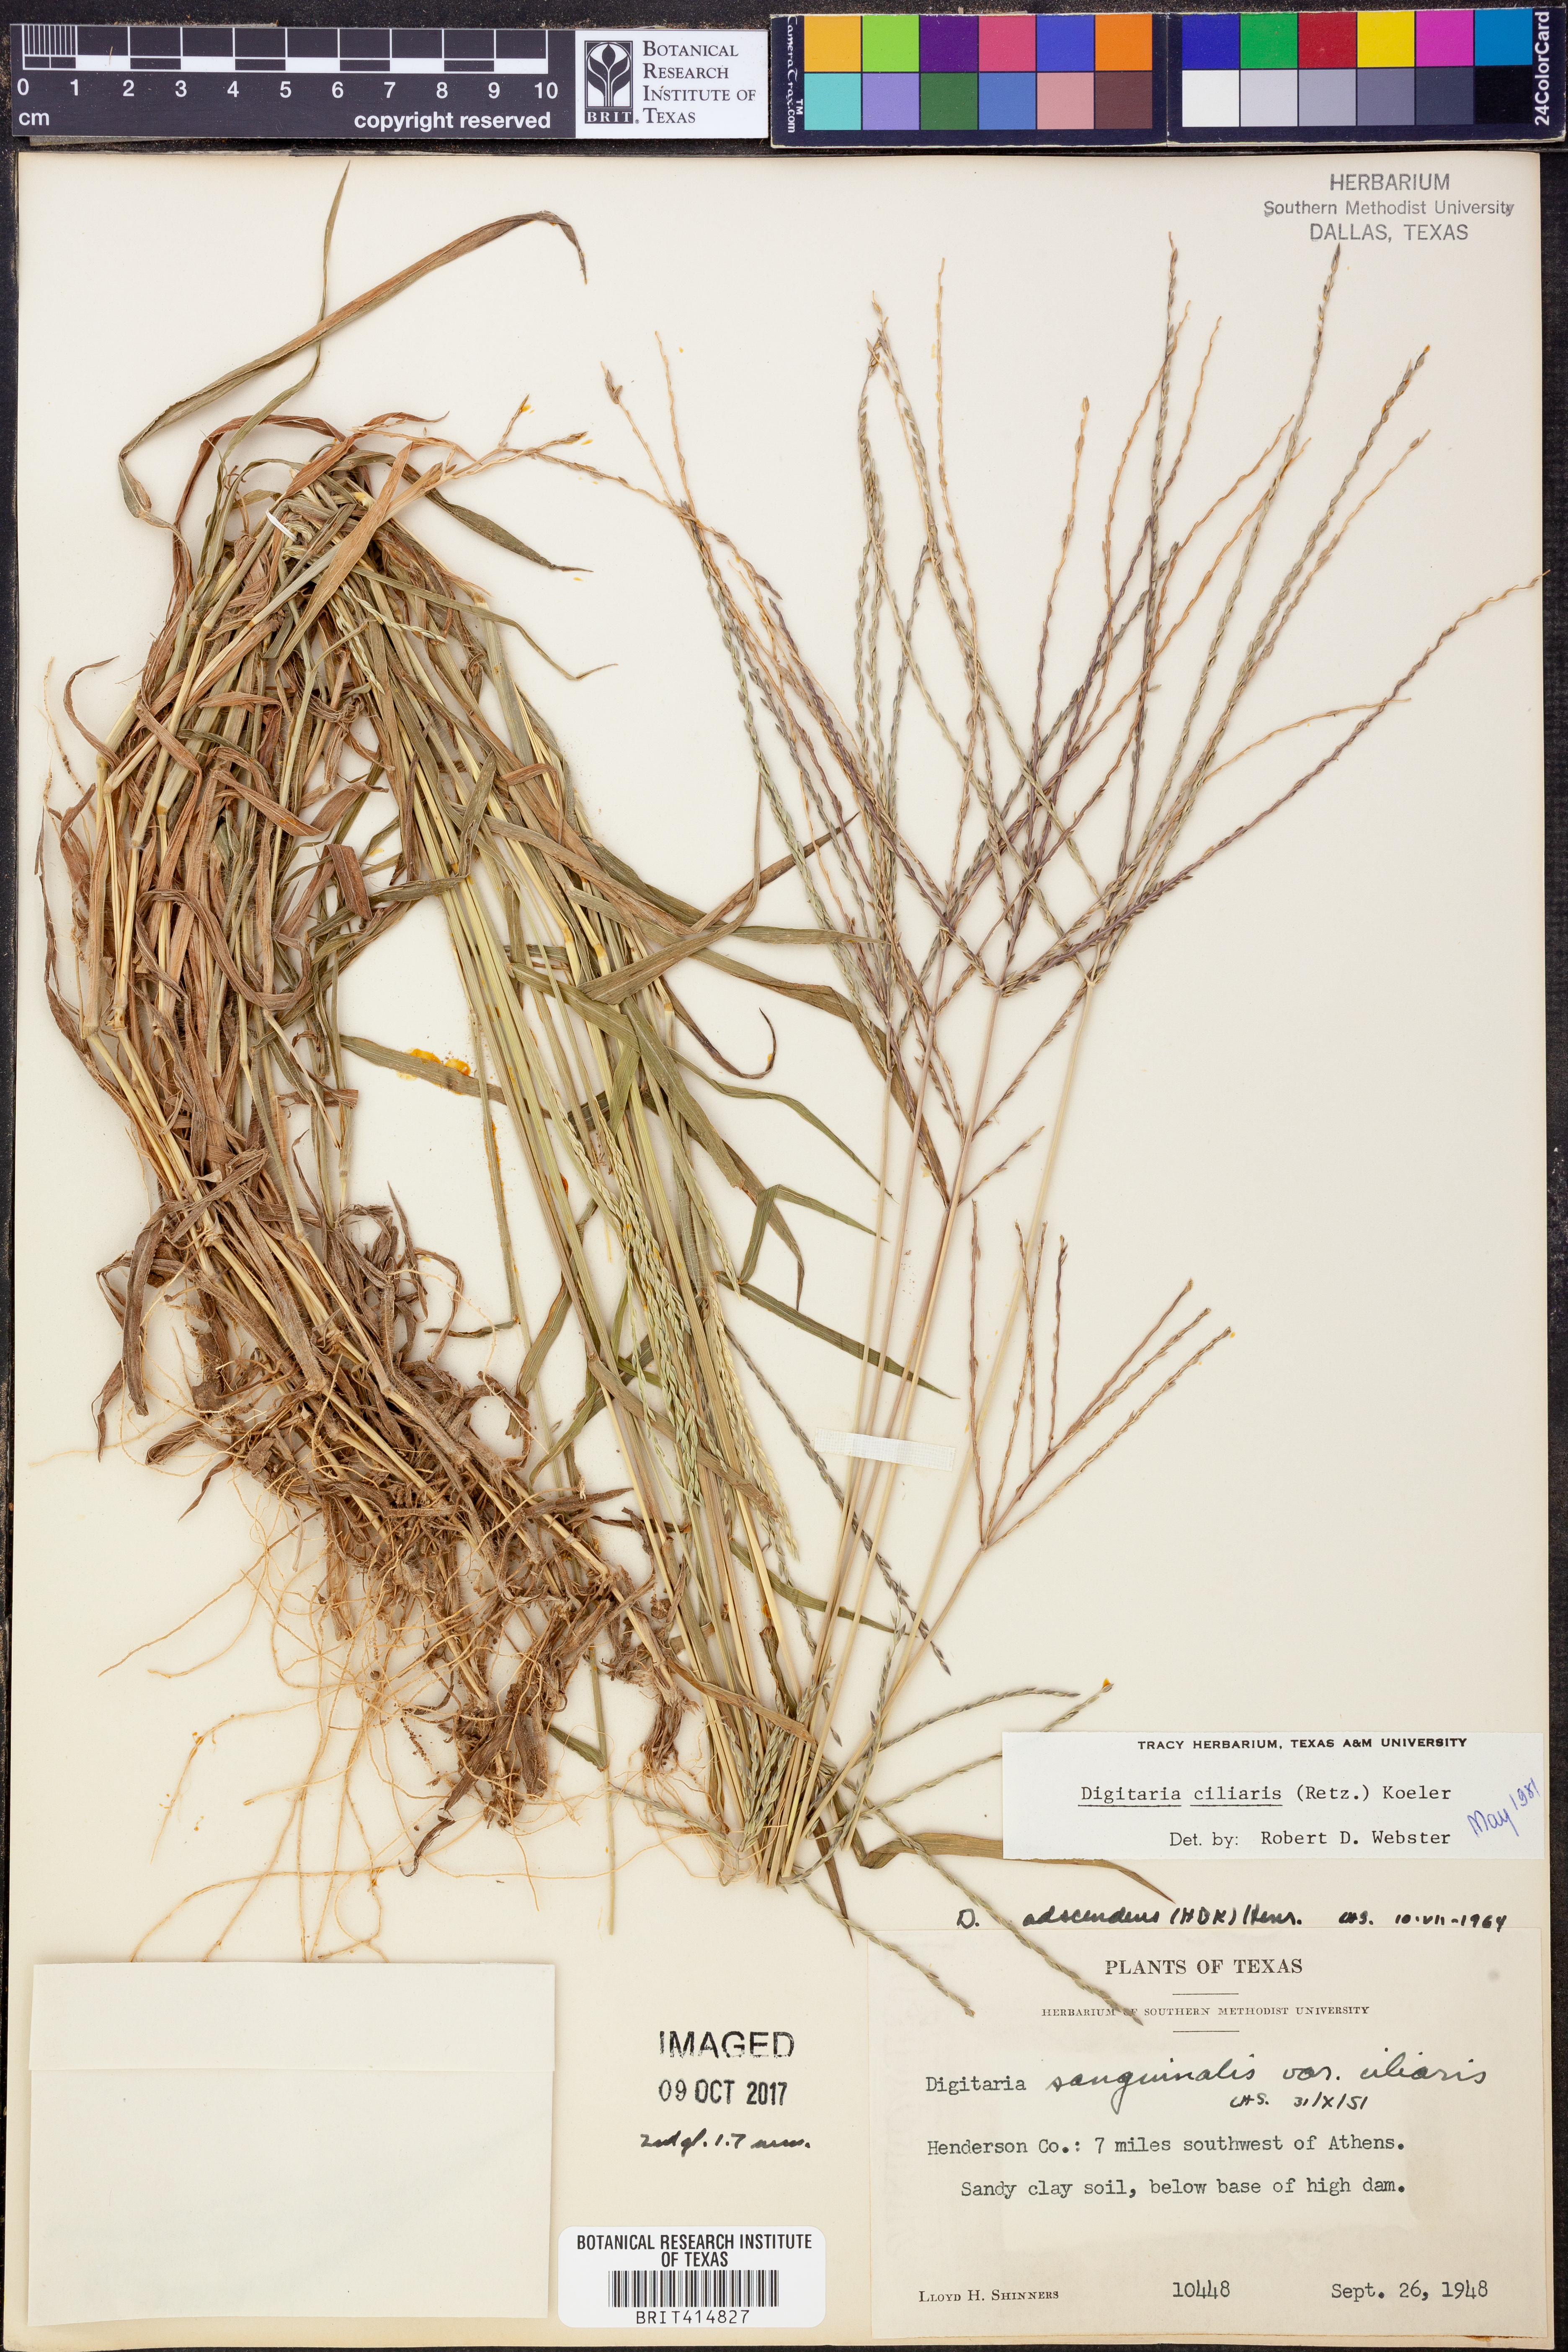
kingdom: Plantae
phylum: Tracheophyta
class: Liliopsida
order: Poales
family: Poaceae
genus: Digitaria
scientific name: Digitaria ciliaris
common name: Tropical finger-grass
